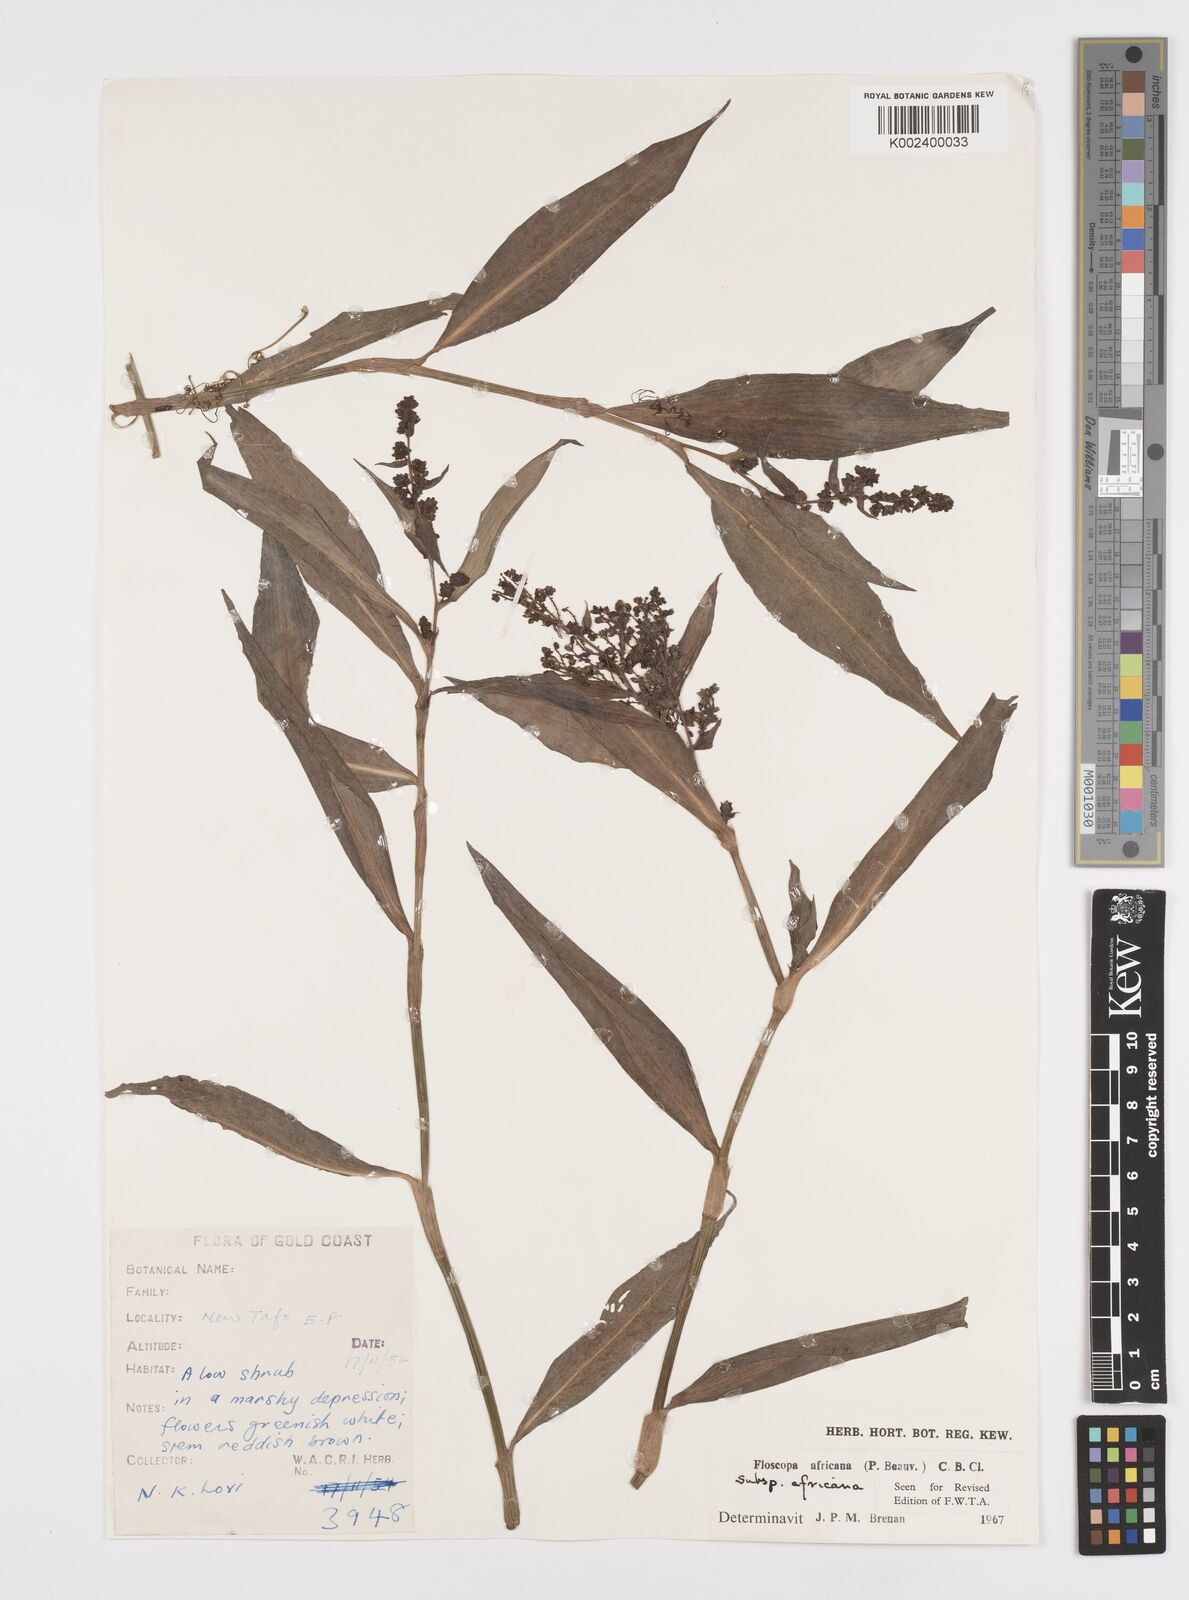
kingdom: Plantae
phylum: Tracheophyta
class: Liliopsida
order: Commelinales
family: Commelinaceae
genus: Floscopa
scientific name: Floscopa africana
